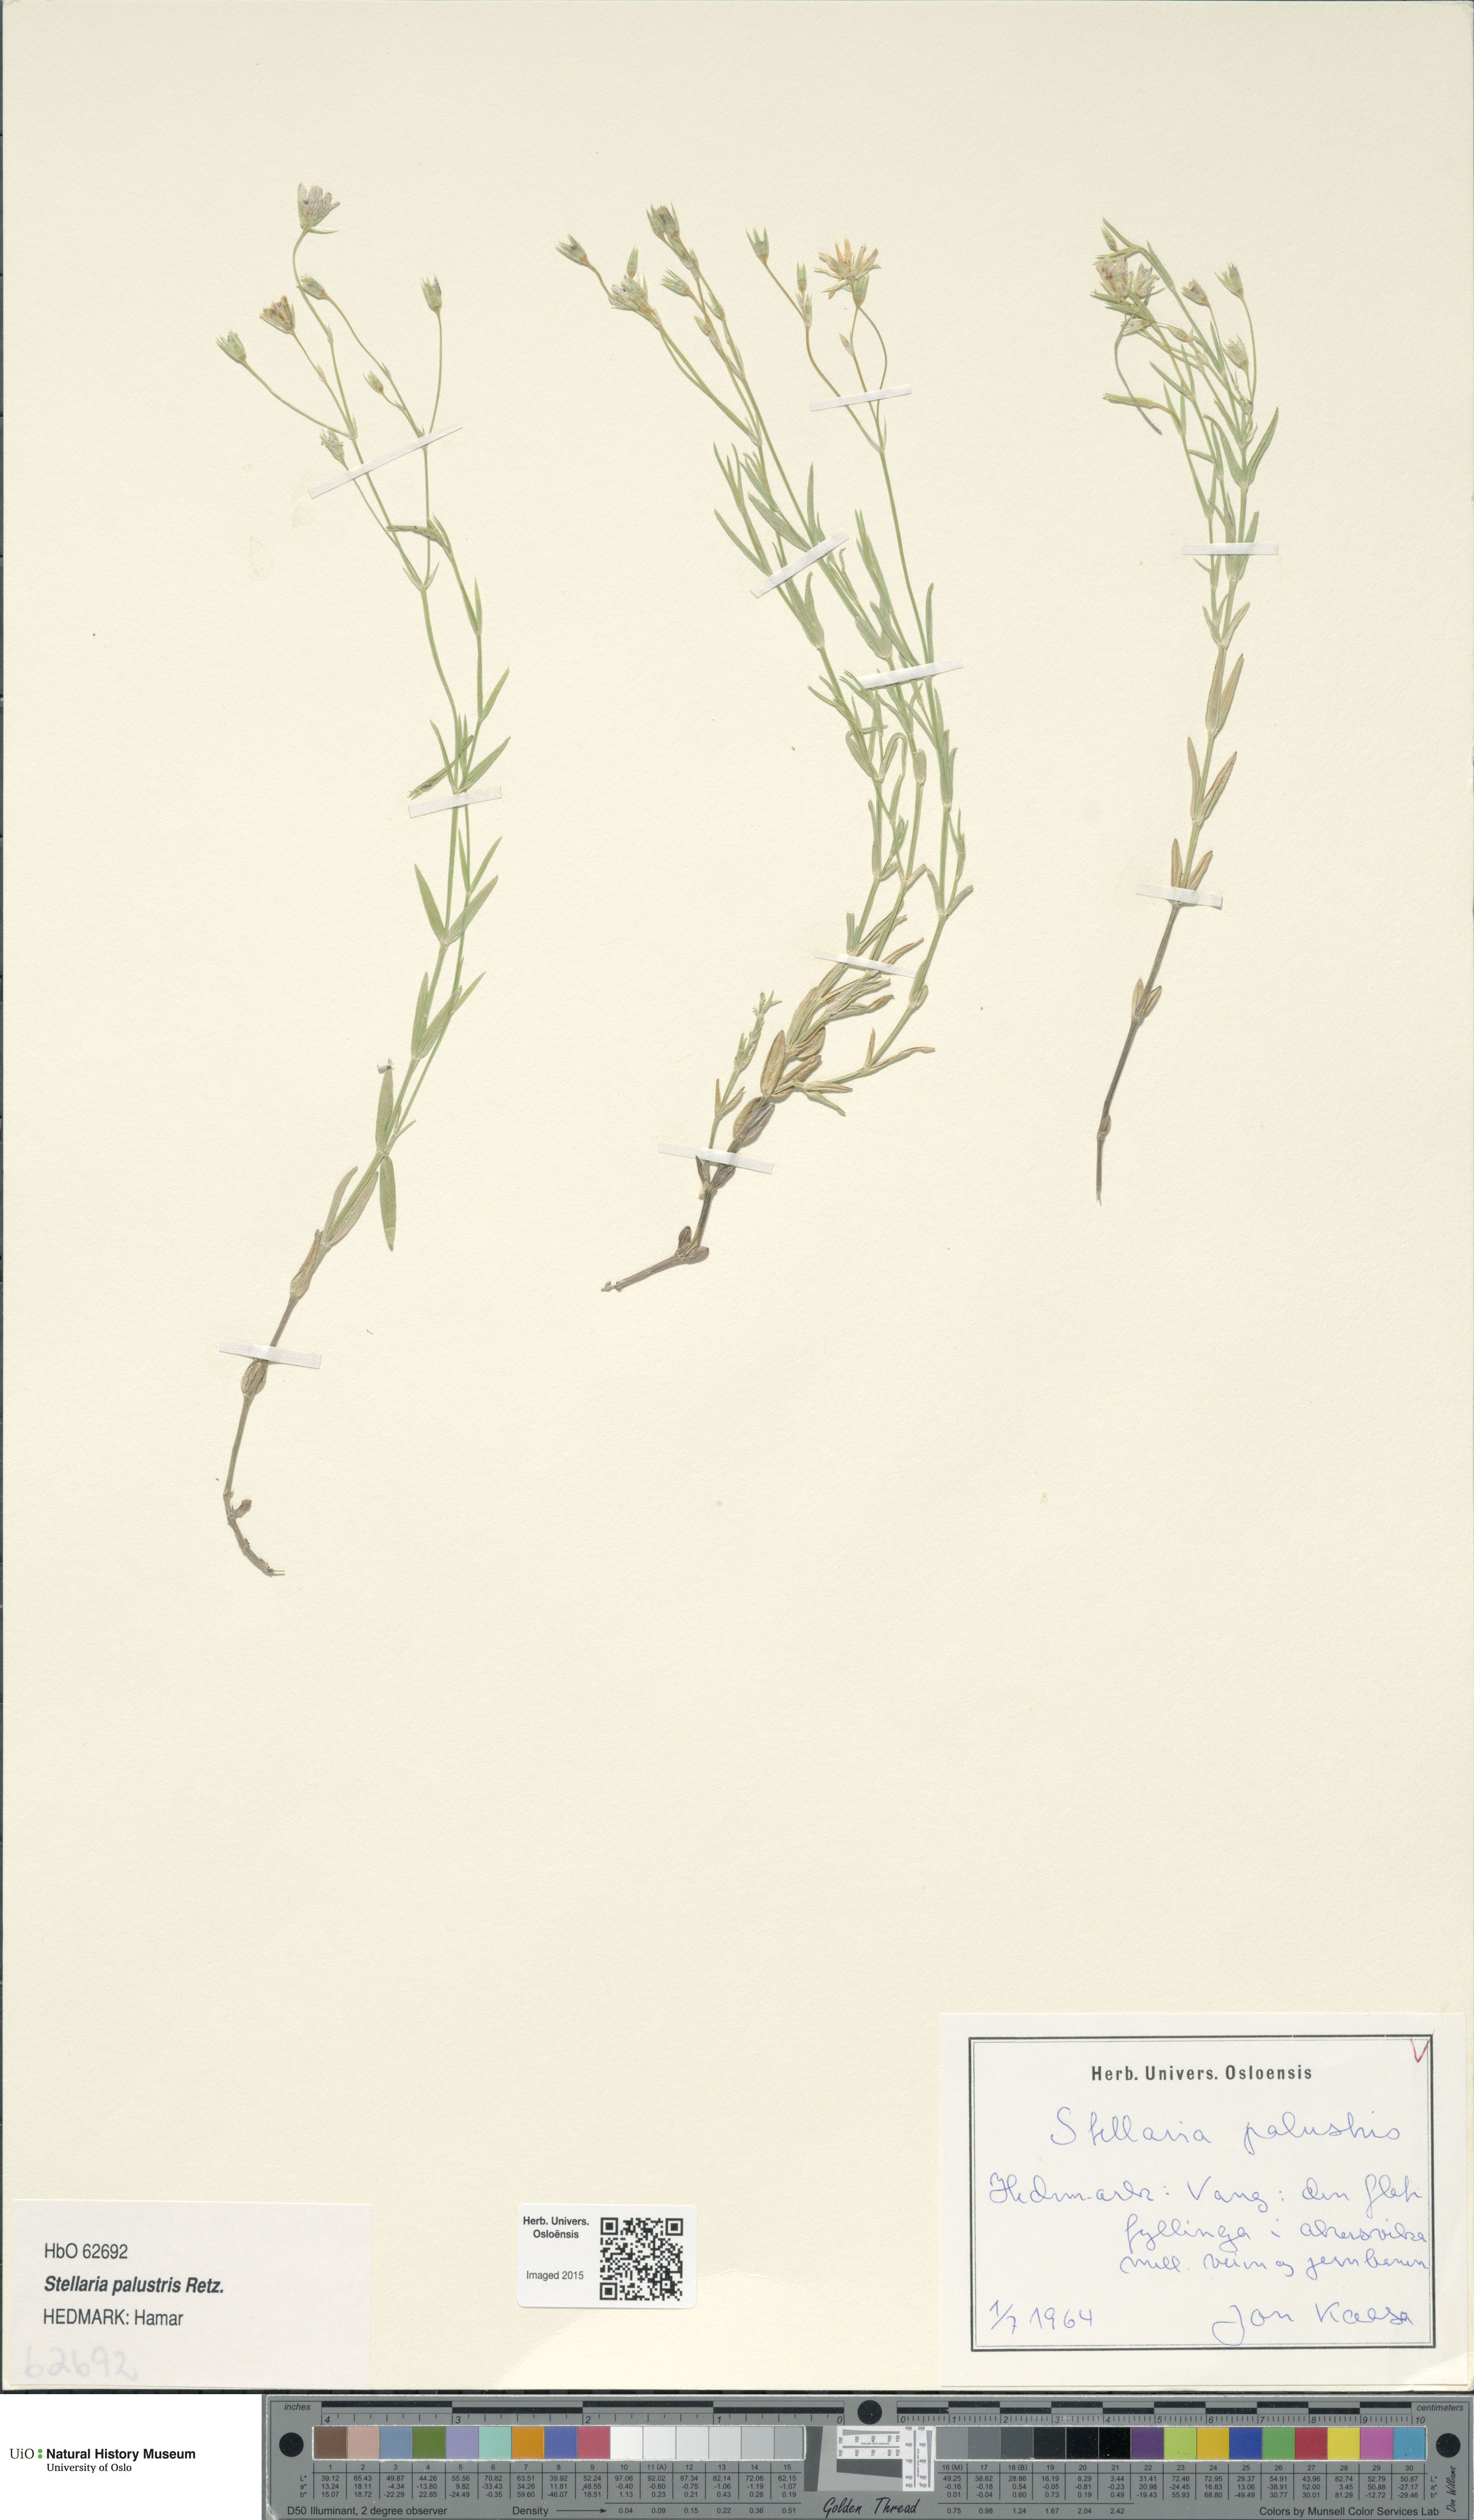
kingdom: Plantae
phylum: Tracheophyta
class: Magnoliopsida
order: Caryophyllales
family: Caryophyllaceae
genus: Stellaria
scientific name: Stellaria palustris
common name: Marsh stitchwort
